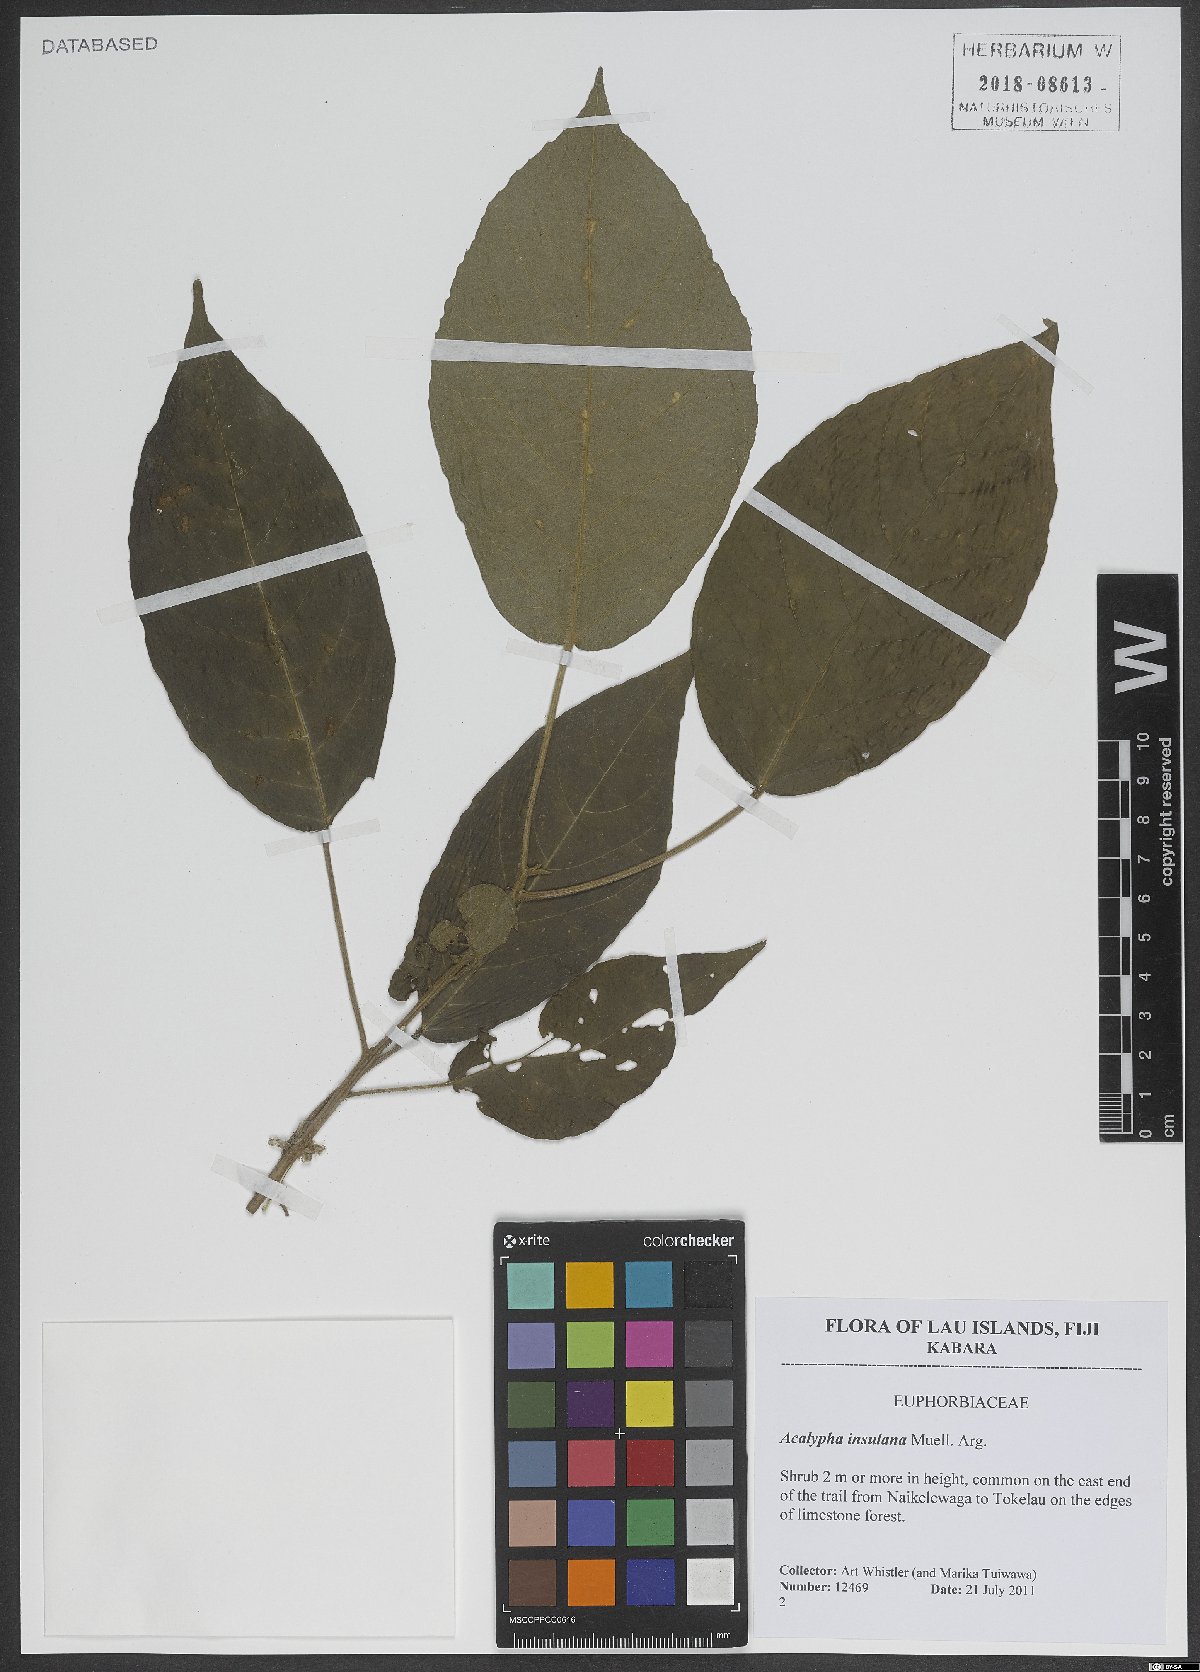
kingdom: Plantae
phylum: Tracheophyta
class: Magnoliopsida
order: Malpighiales
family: Euphorbiaceae
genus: Acalypha
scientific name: Acalypha insulana
